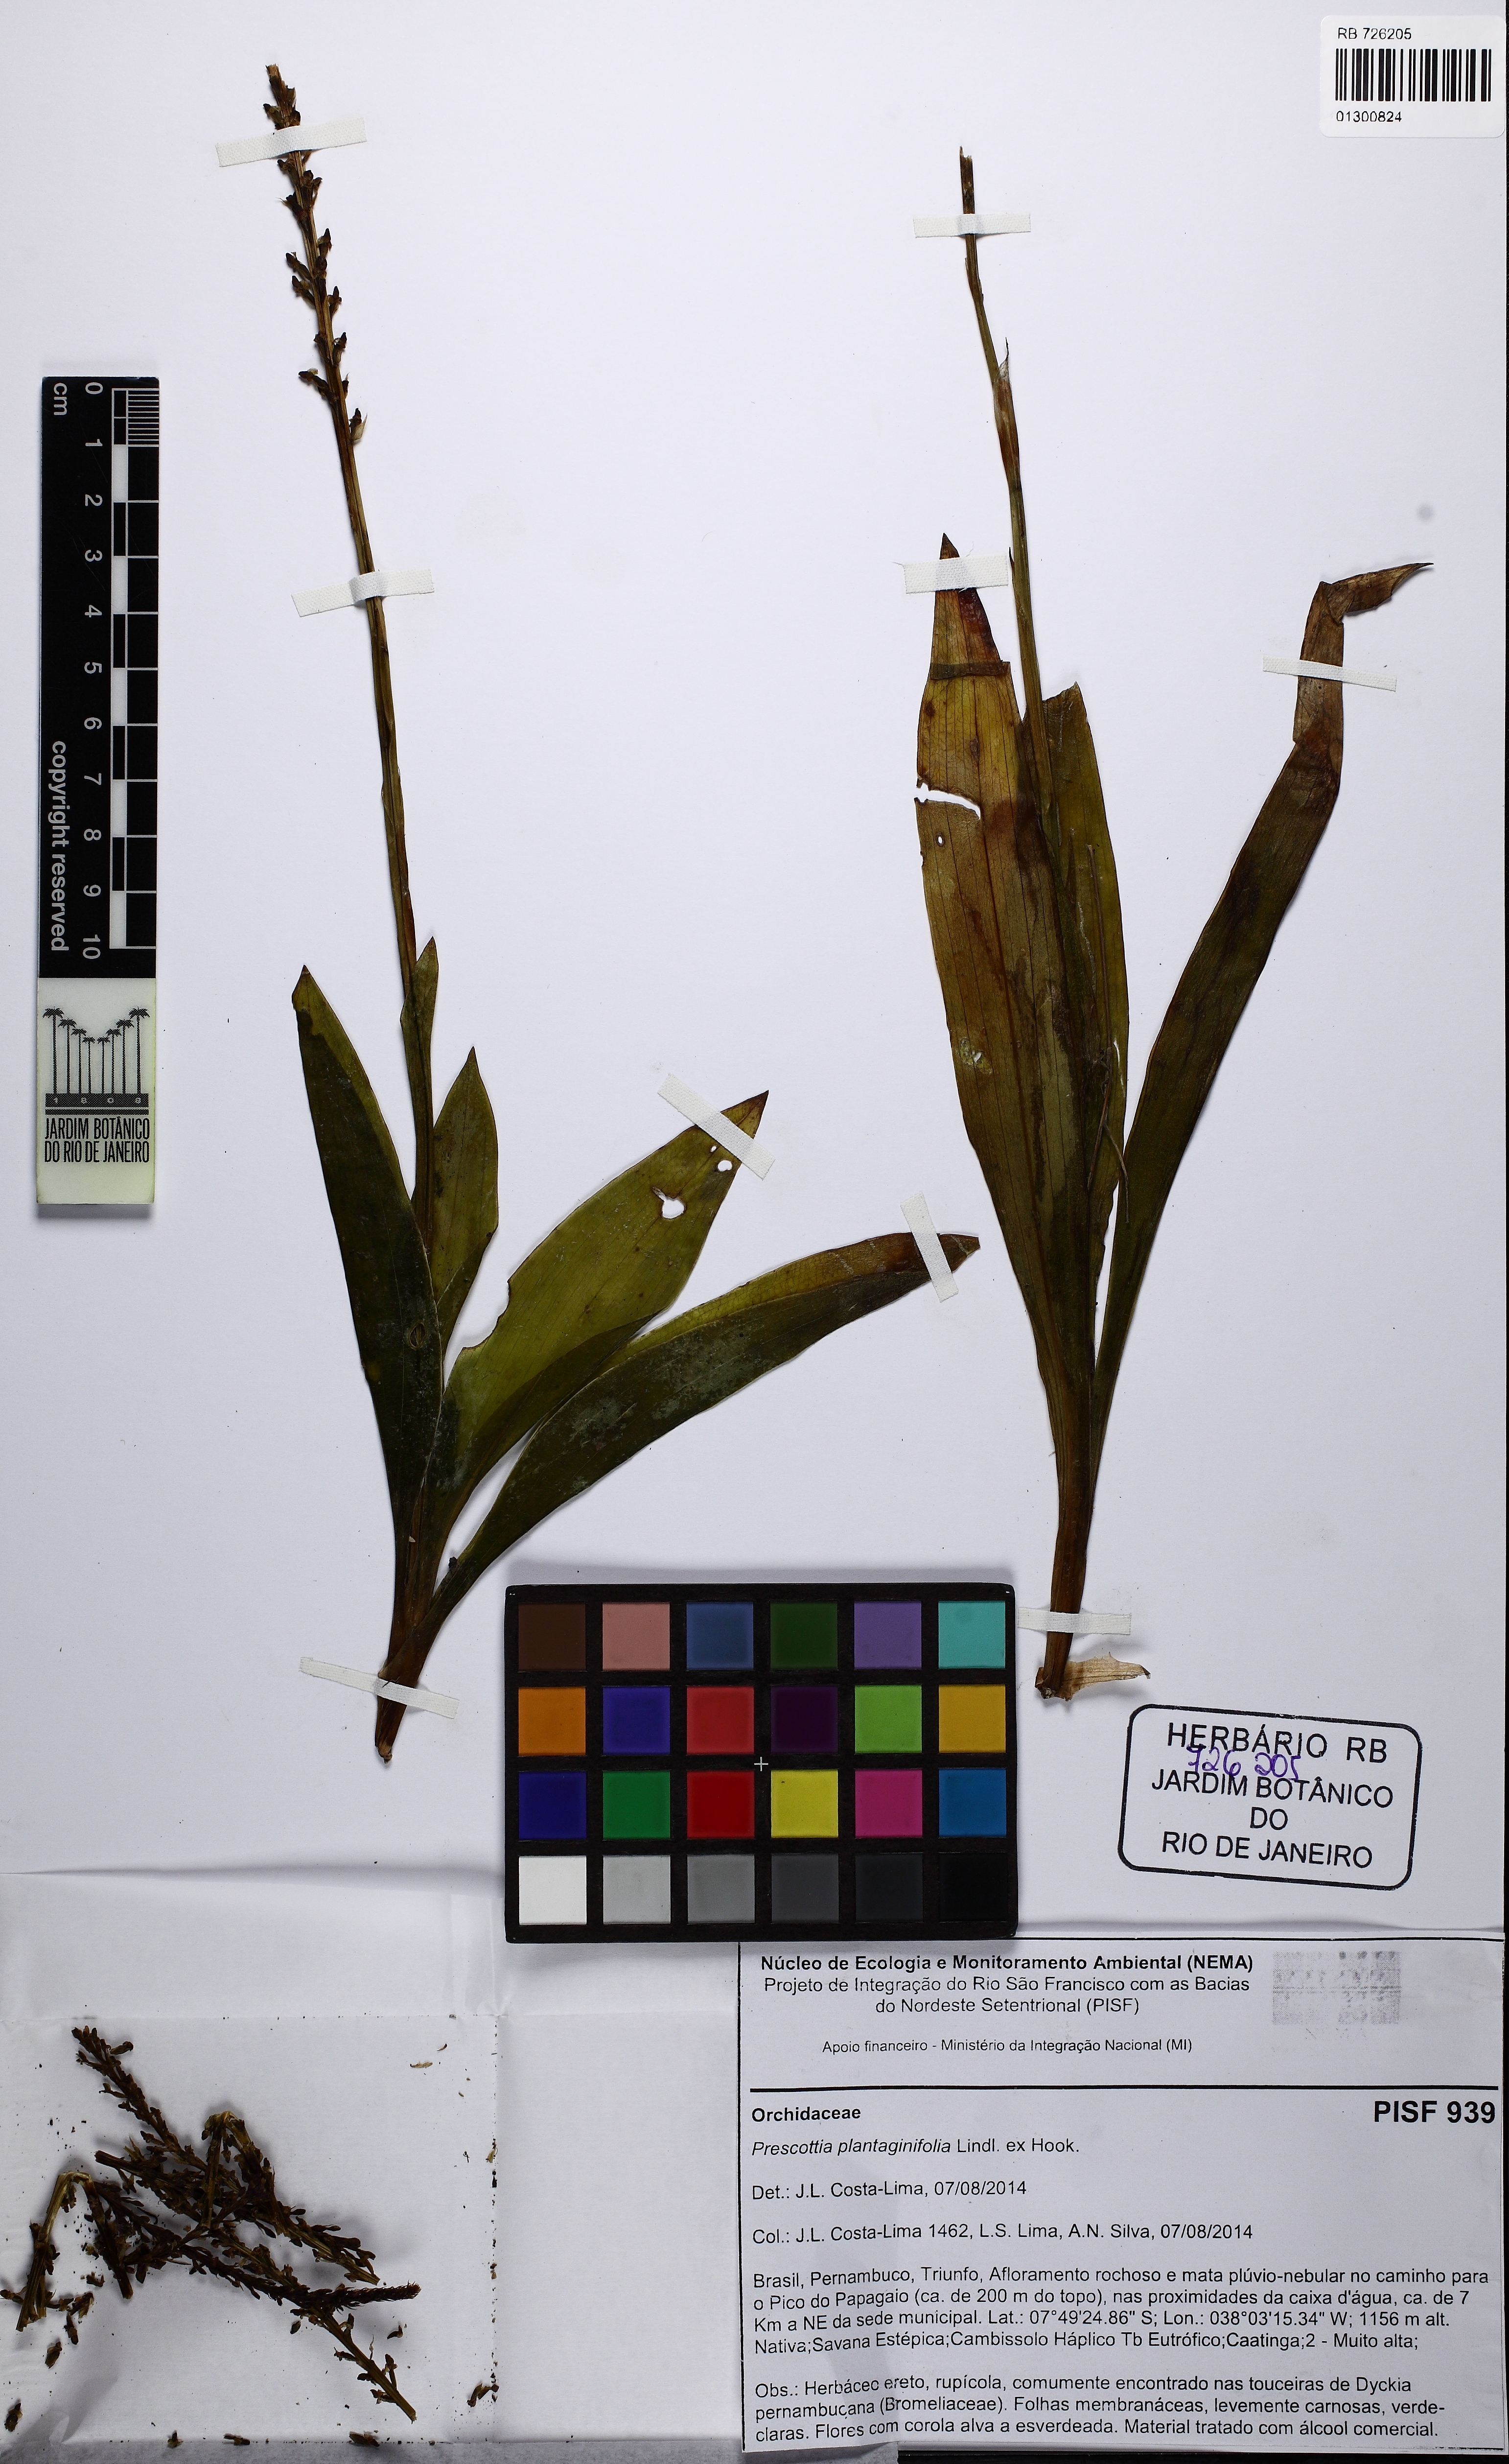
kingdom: Plantae
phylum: Tracheophyta
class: Liliopsida
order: Asparagales
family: Orchidaceae
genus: Prescottia
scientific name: Prescottia plantaginifolia
